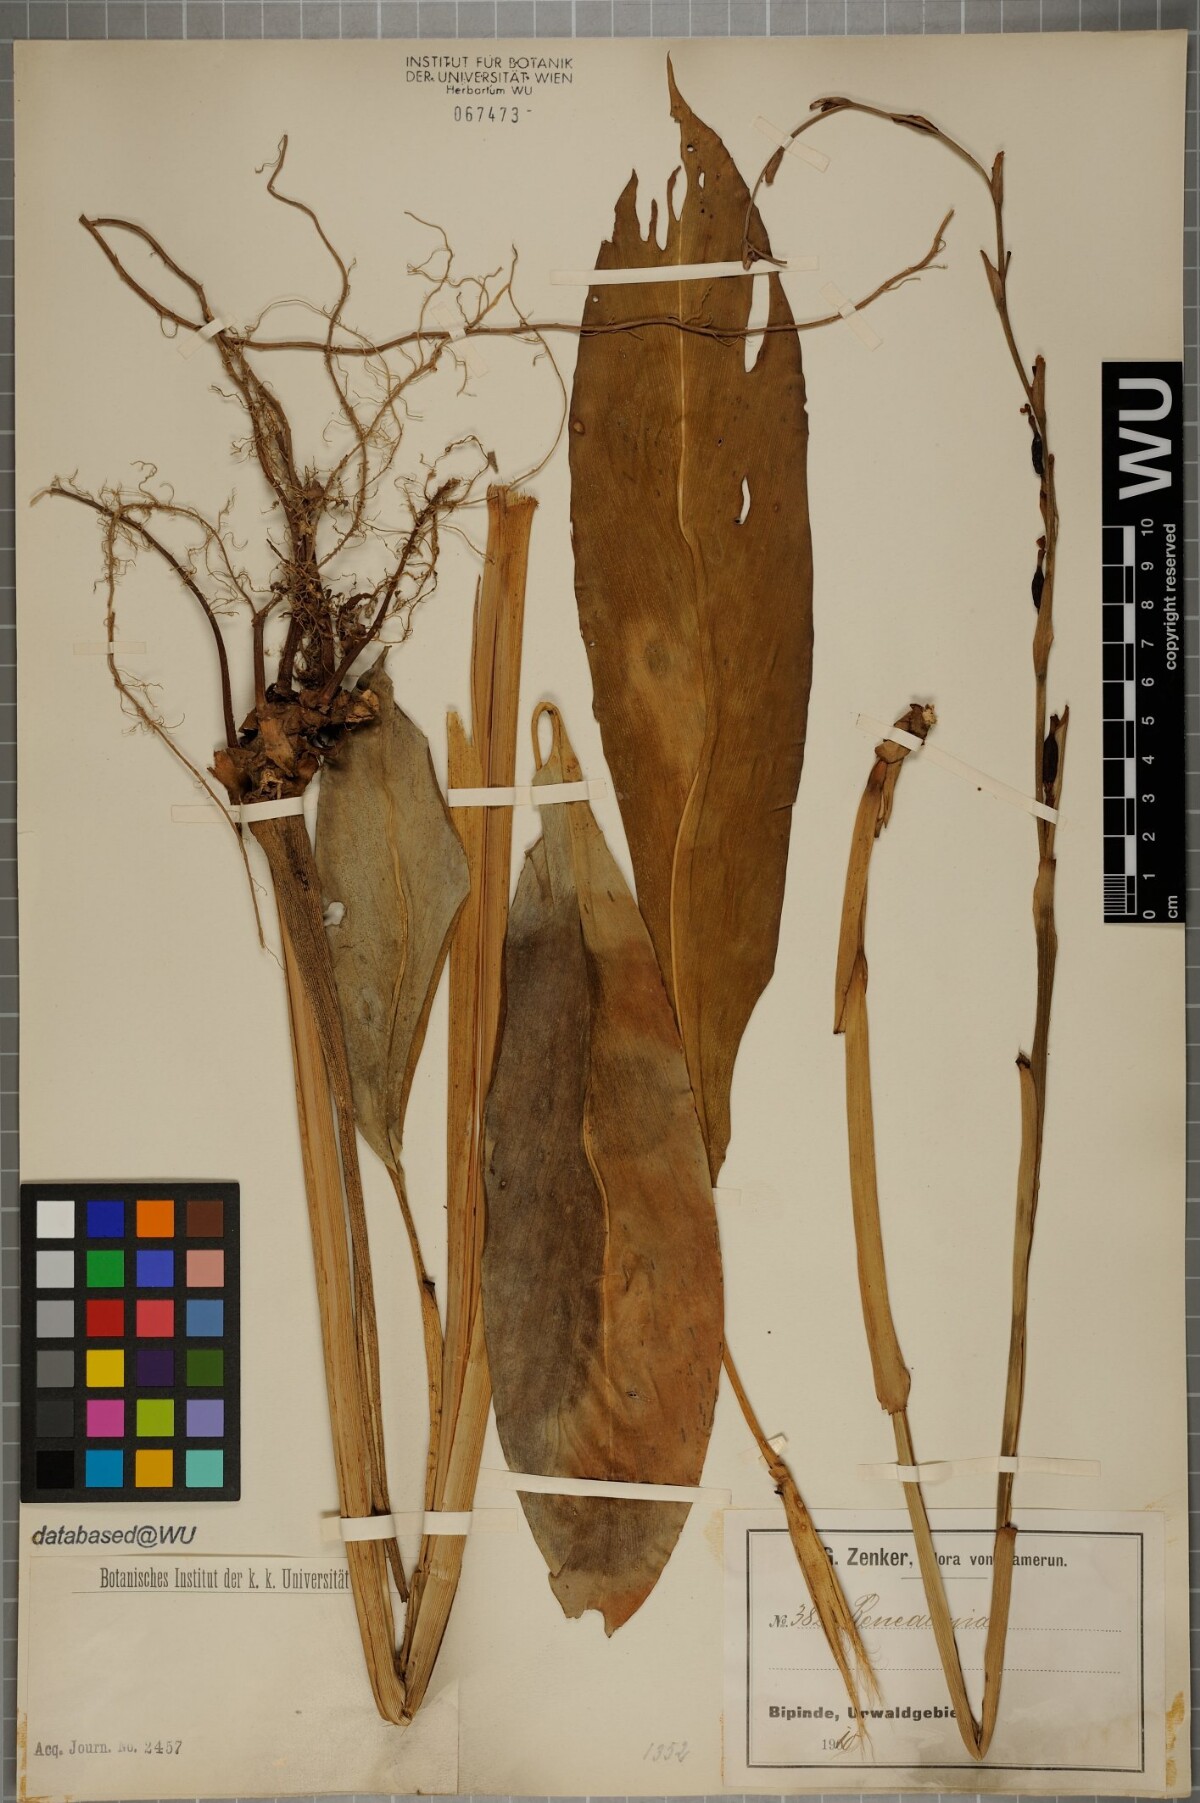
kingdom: Plantae
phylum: Tracheophyta
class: Liliopsida
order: Zingiberales
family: Zingiberaceae
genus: Renealmia
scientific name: Renealmia
